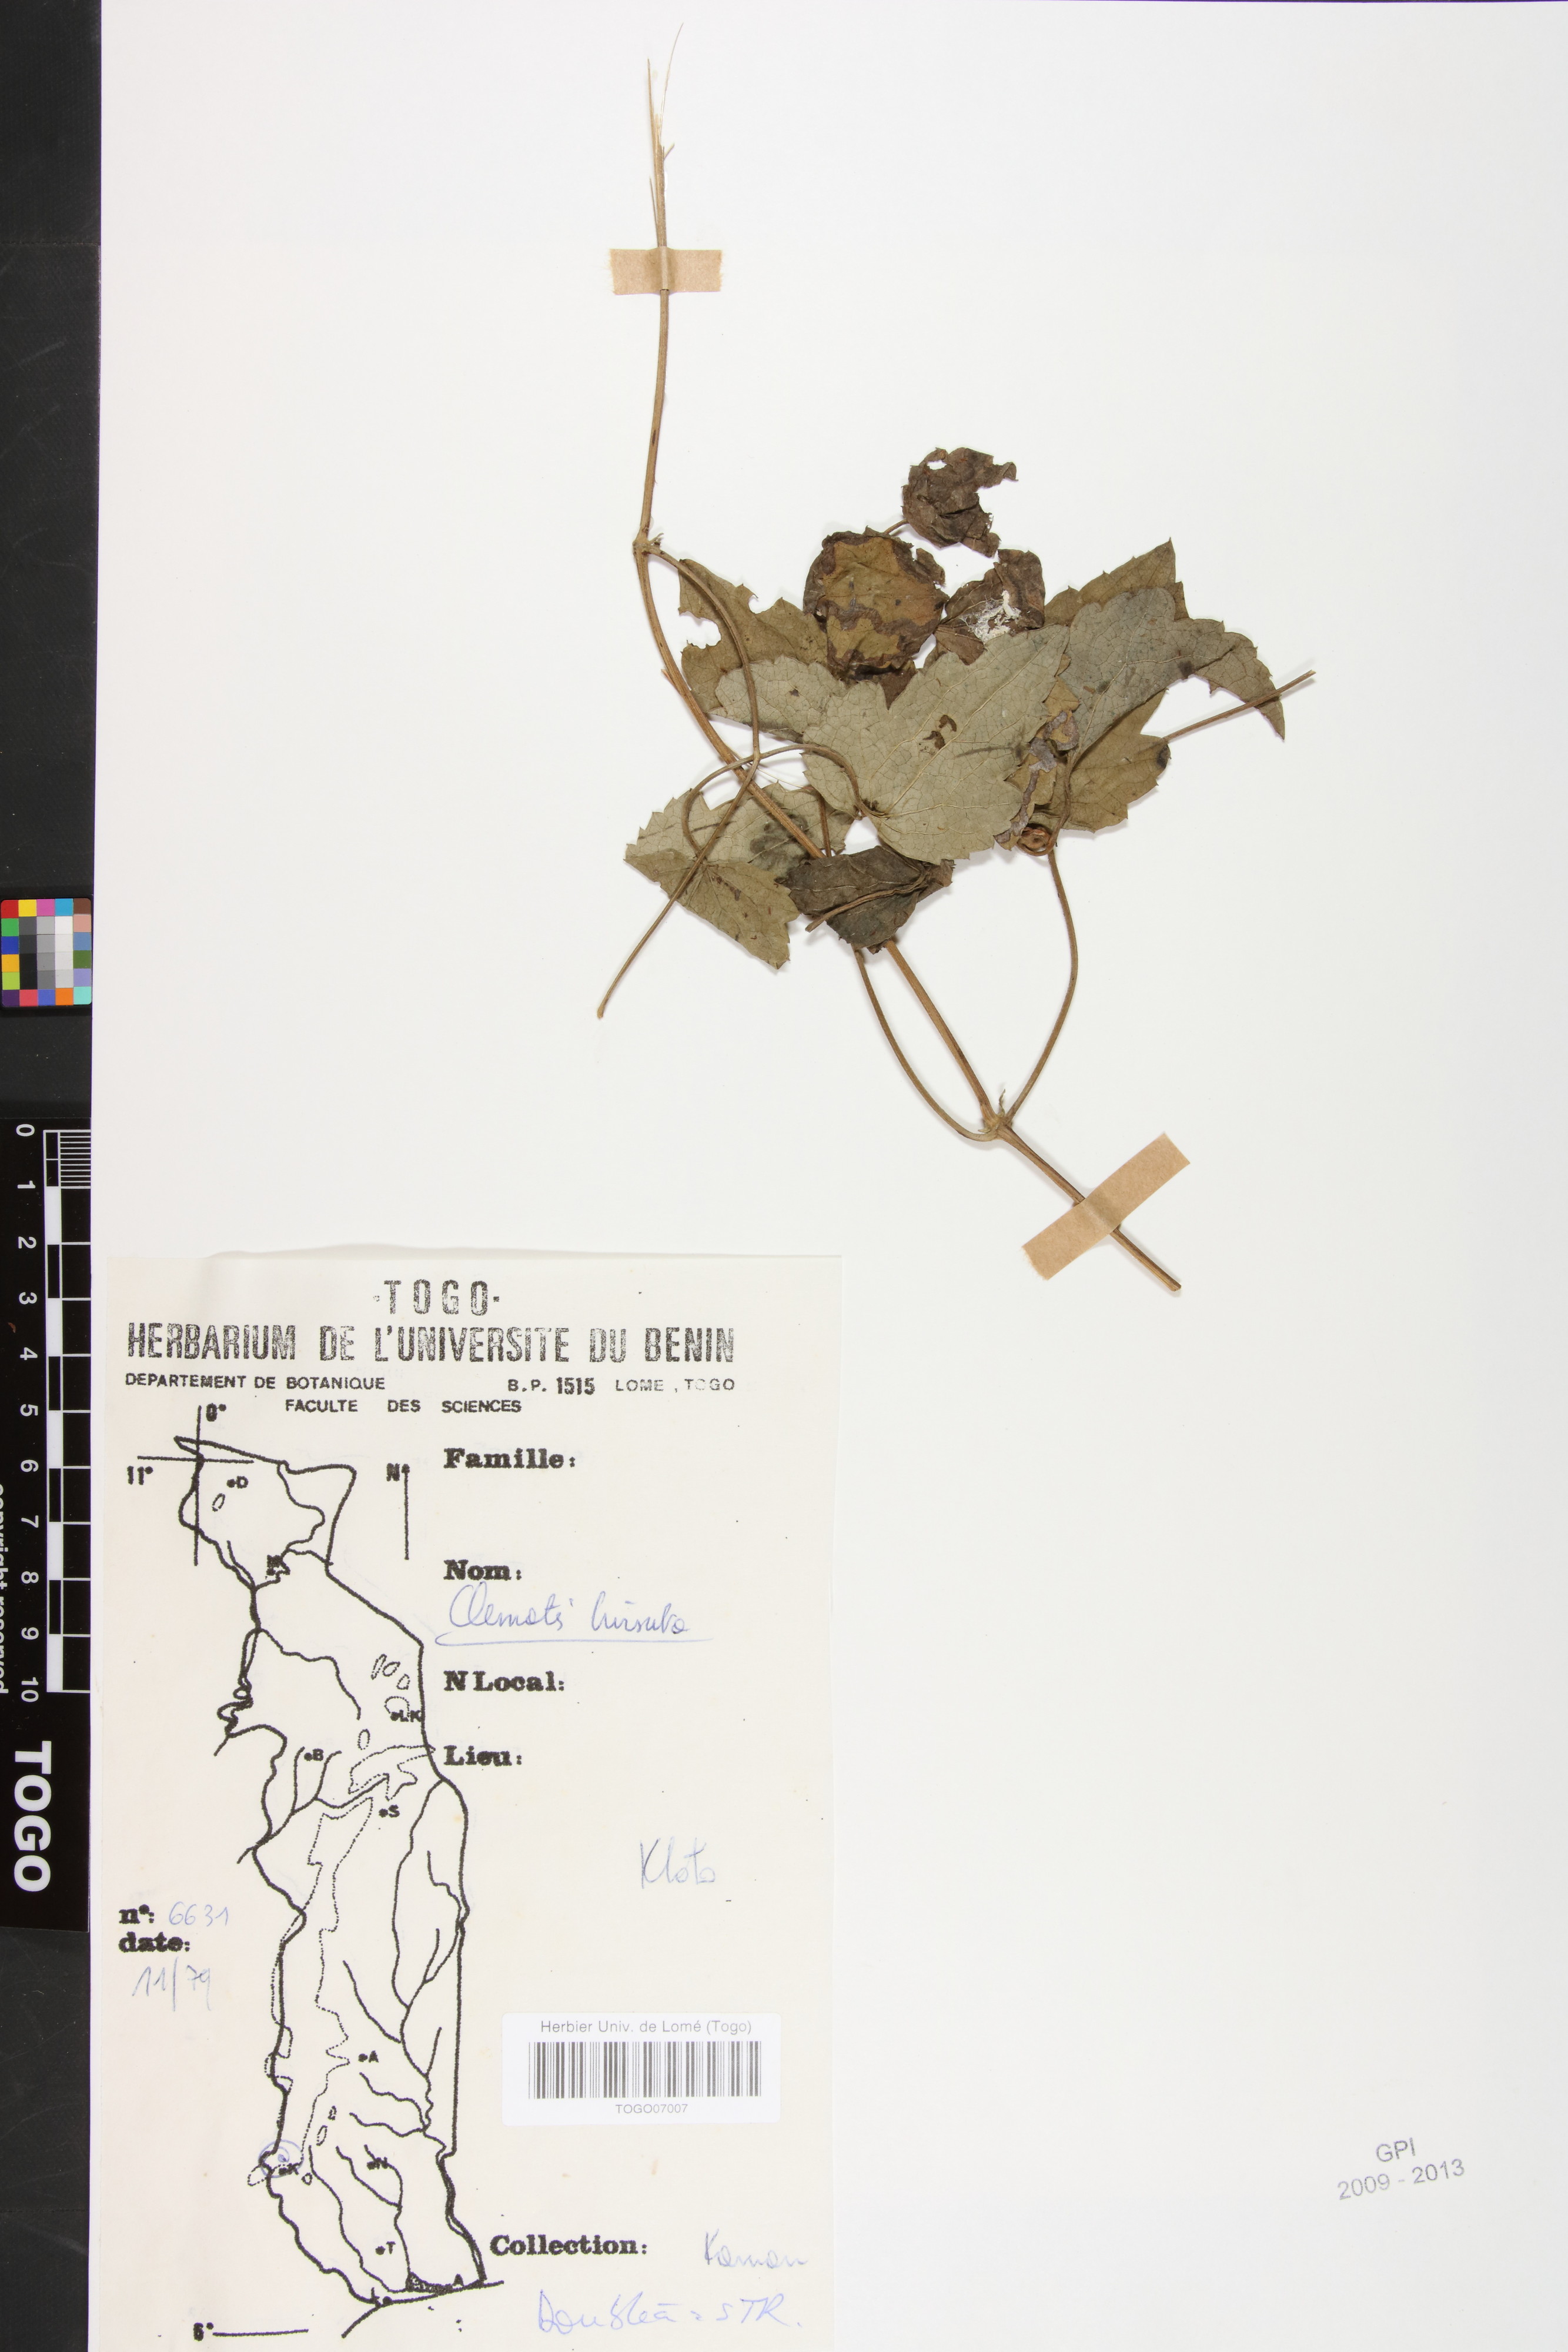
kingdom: Plantae
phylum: Tracheophyta
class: Magnoliopsida
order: Ranunculales
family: Ranunculaceae
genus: Clematis
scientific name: Clematis hirsuta
